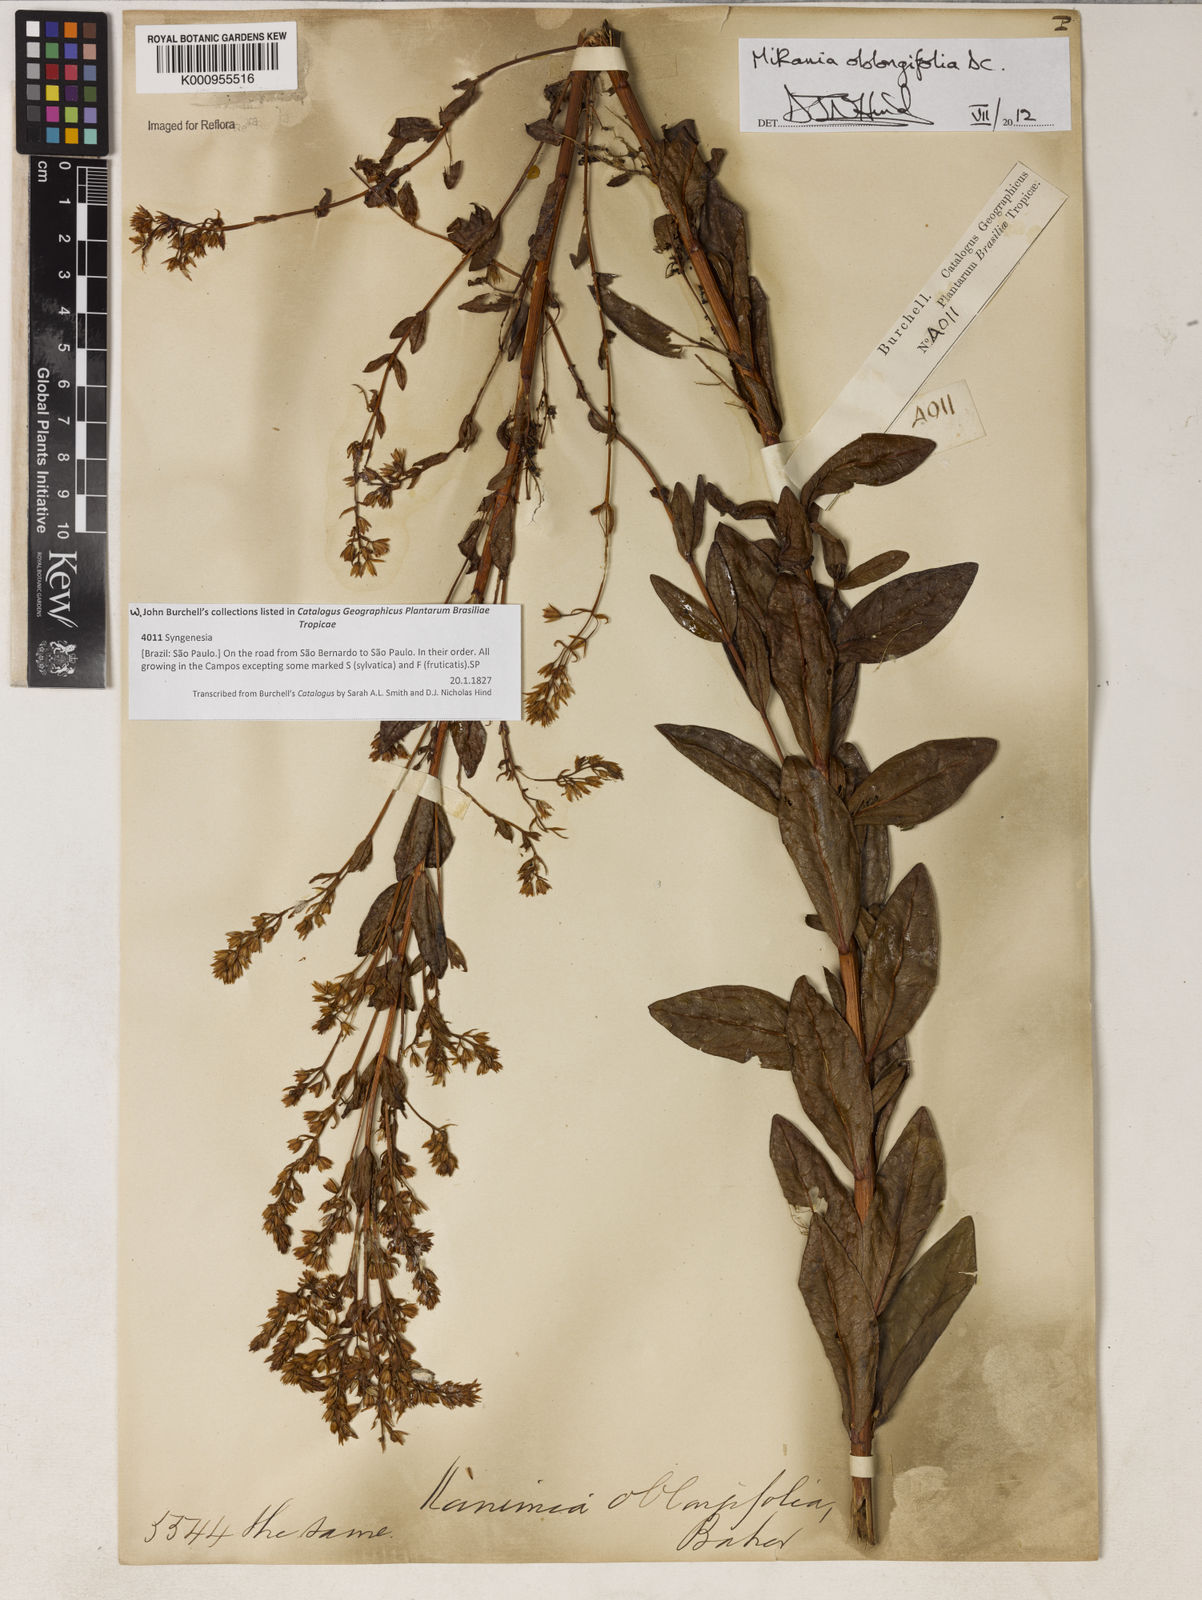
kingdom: Plantae
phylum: Tracheophyta
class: Magnoliopsida
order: Asterales
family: Asteraceae
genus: Mikania
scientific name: Mikania oblongifolia
